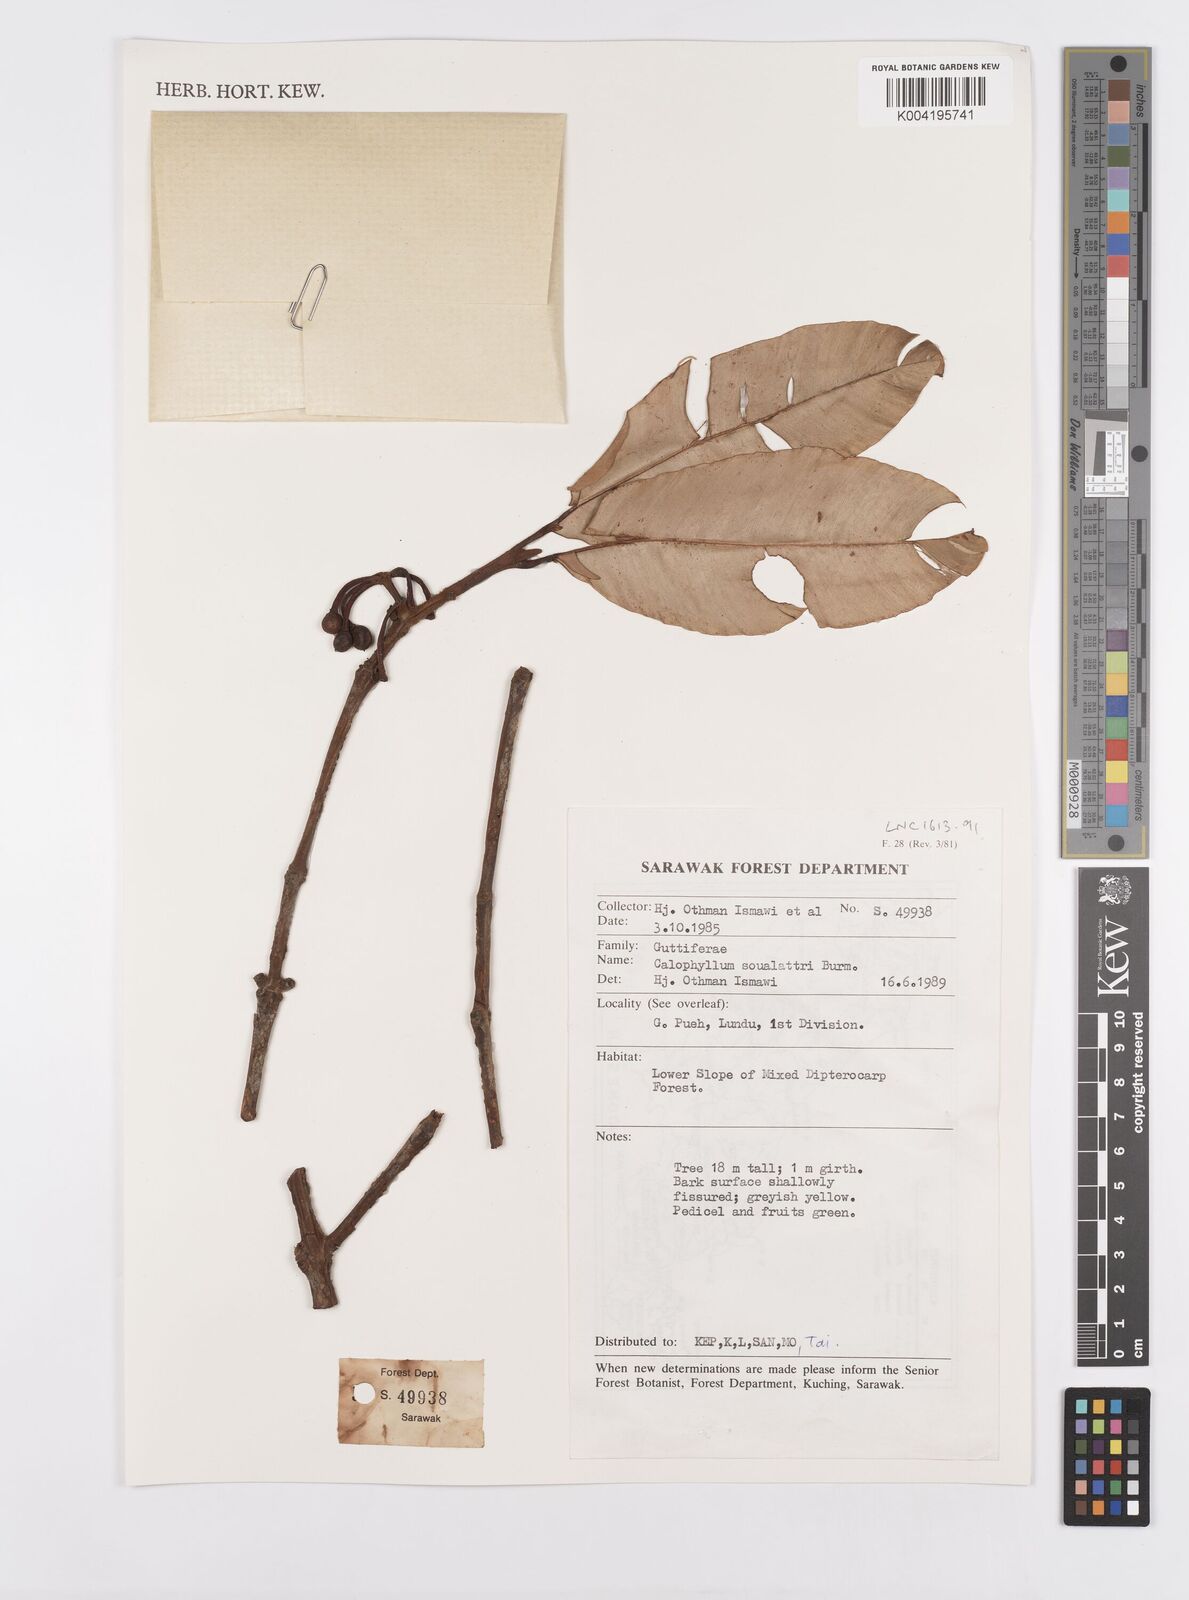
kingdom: Plantae
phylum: Tracheophyta
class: Magnoliopsida
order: Malpighiales
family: Calophyllaceae
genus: Calophyllum
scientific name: Calophyllum soulattri
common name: Bitangoor boonot
